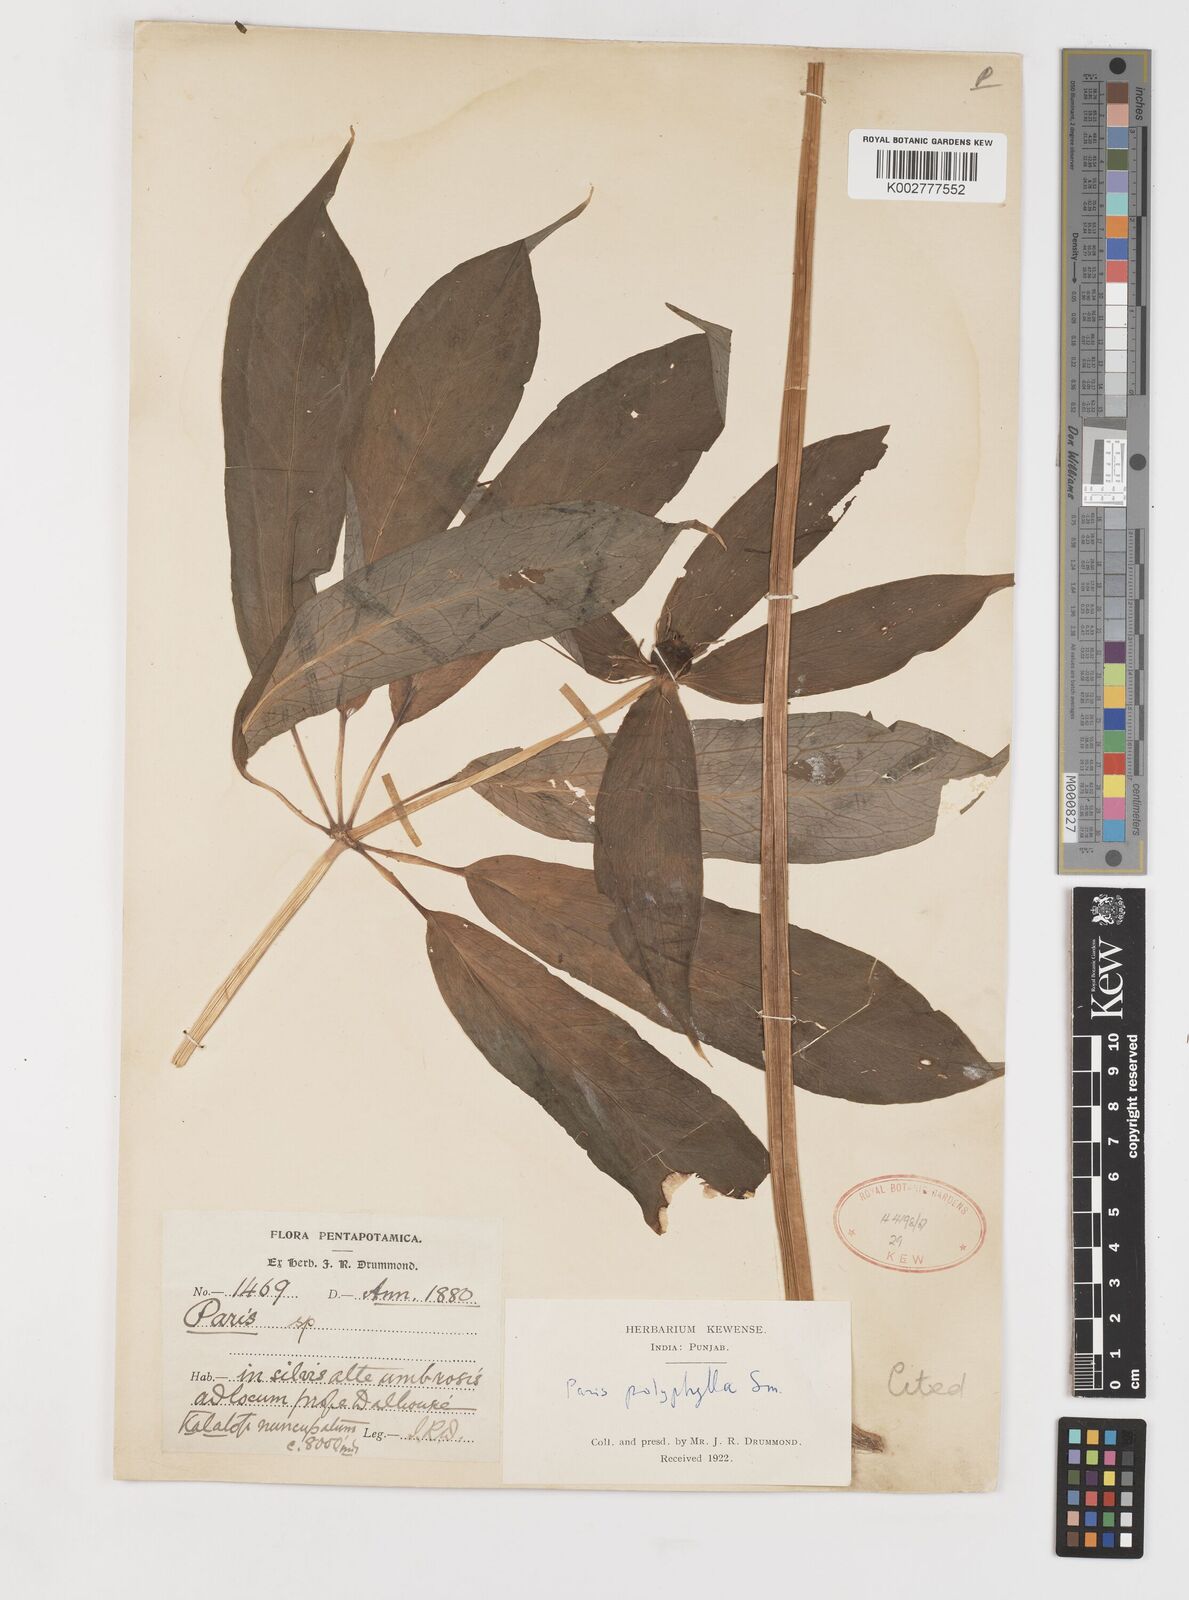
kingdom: Plantae
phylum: Tracheophyta
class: Liliopsida
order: Liliales
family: Melanthiaceae
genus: Paris
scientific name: Paris polyphylla
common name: Love apple
